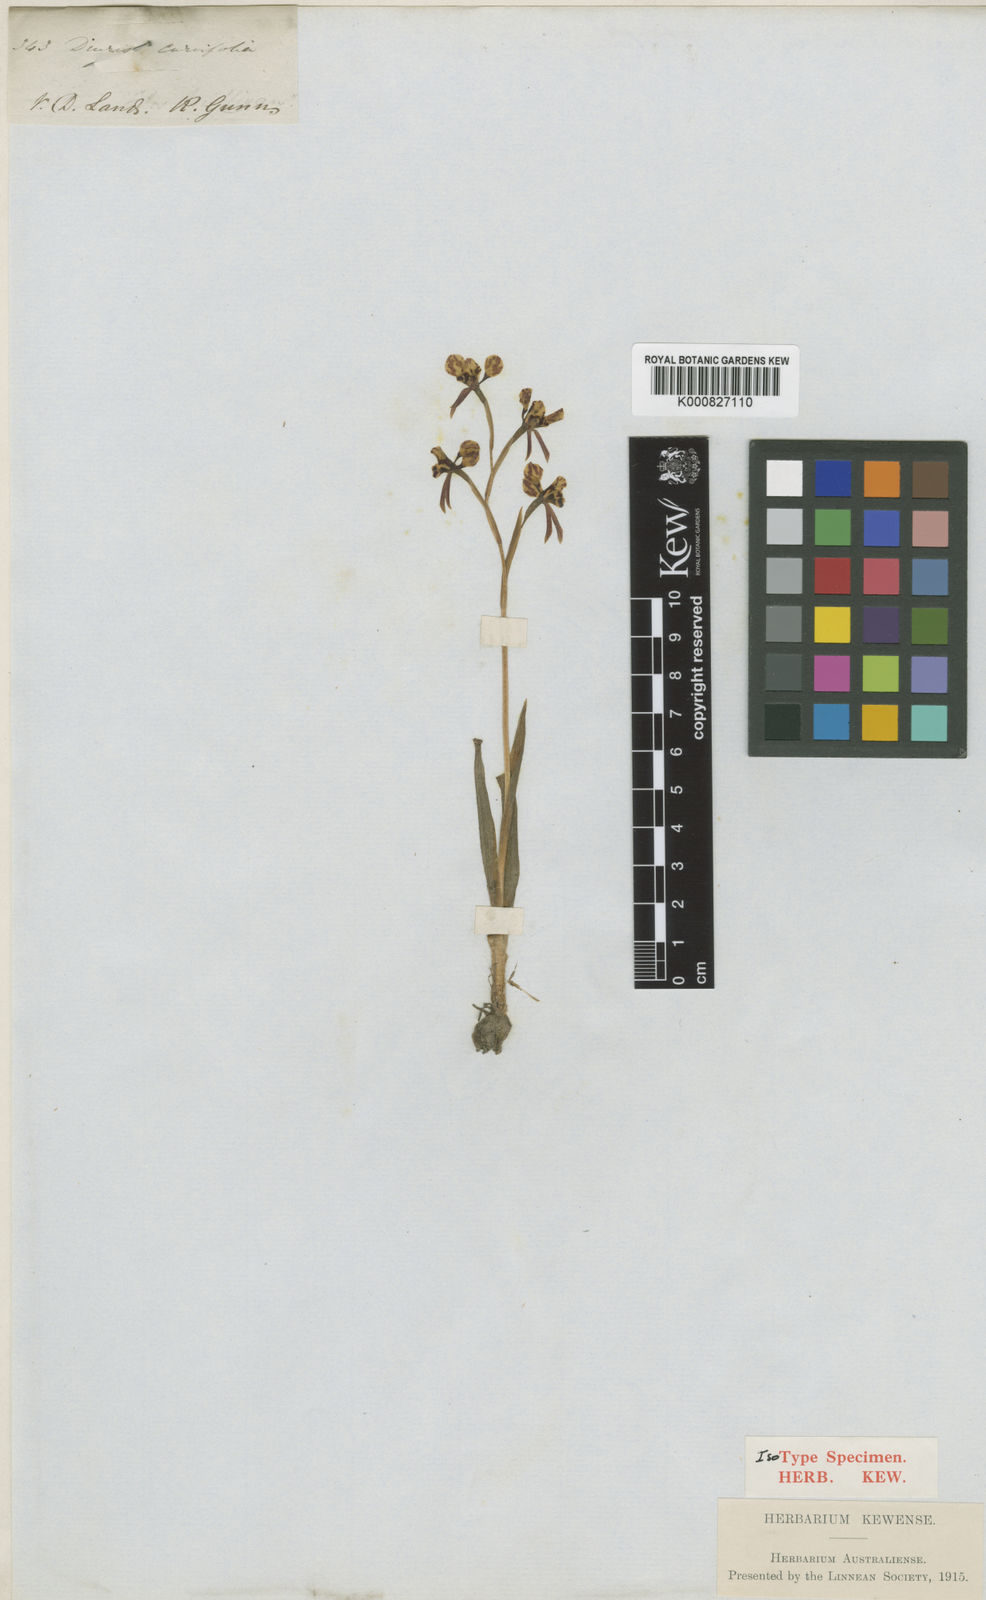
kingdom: Plantae
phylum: Tracheophyta
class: Liliopsida
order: Asparagales
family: Orchidaceae
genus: Diuris
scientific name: Diuris maculata
